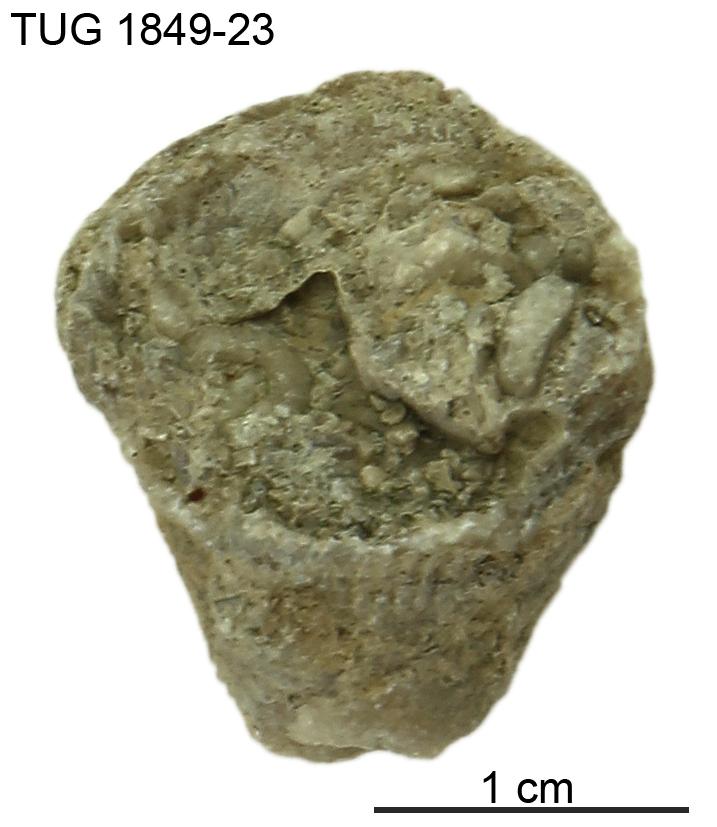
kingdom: Animalia
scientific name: Animalia
